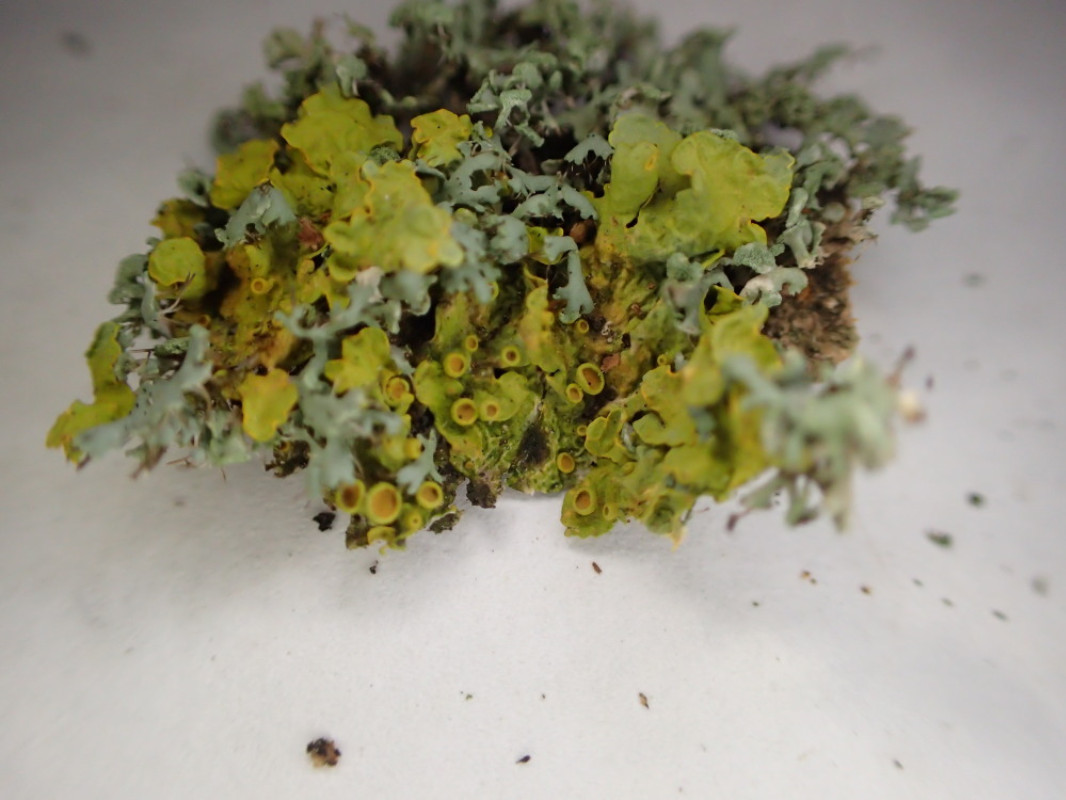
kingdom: Fungi
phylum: Ascomycota
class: Lecanoromycetes
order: Teloschistales
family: Teloschistaceae
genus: Xanthoria
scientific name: Xanthoria parietina
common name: almindelig væggelav
